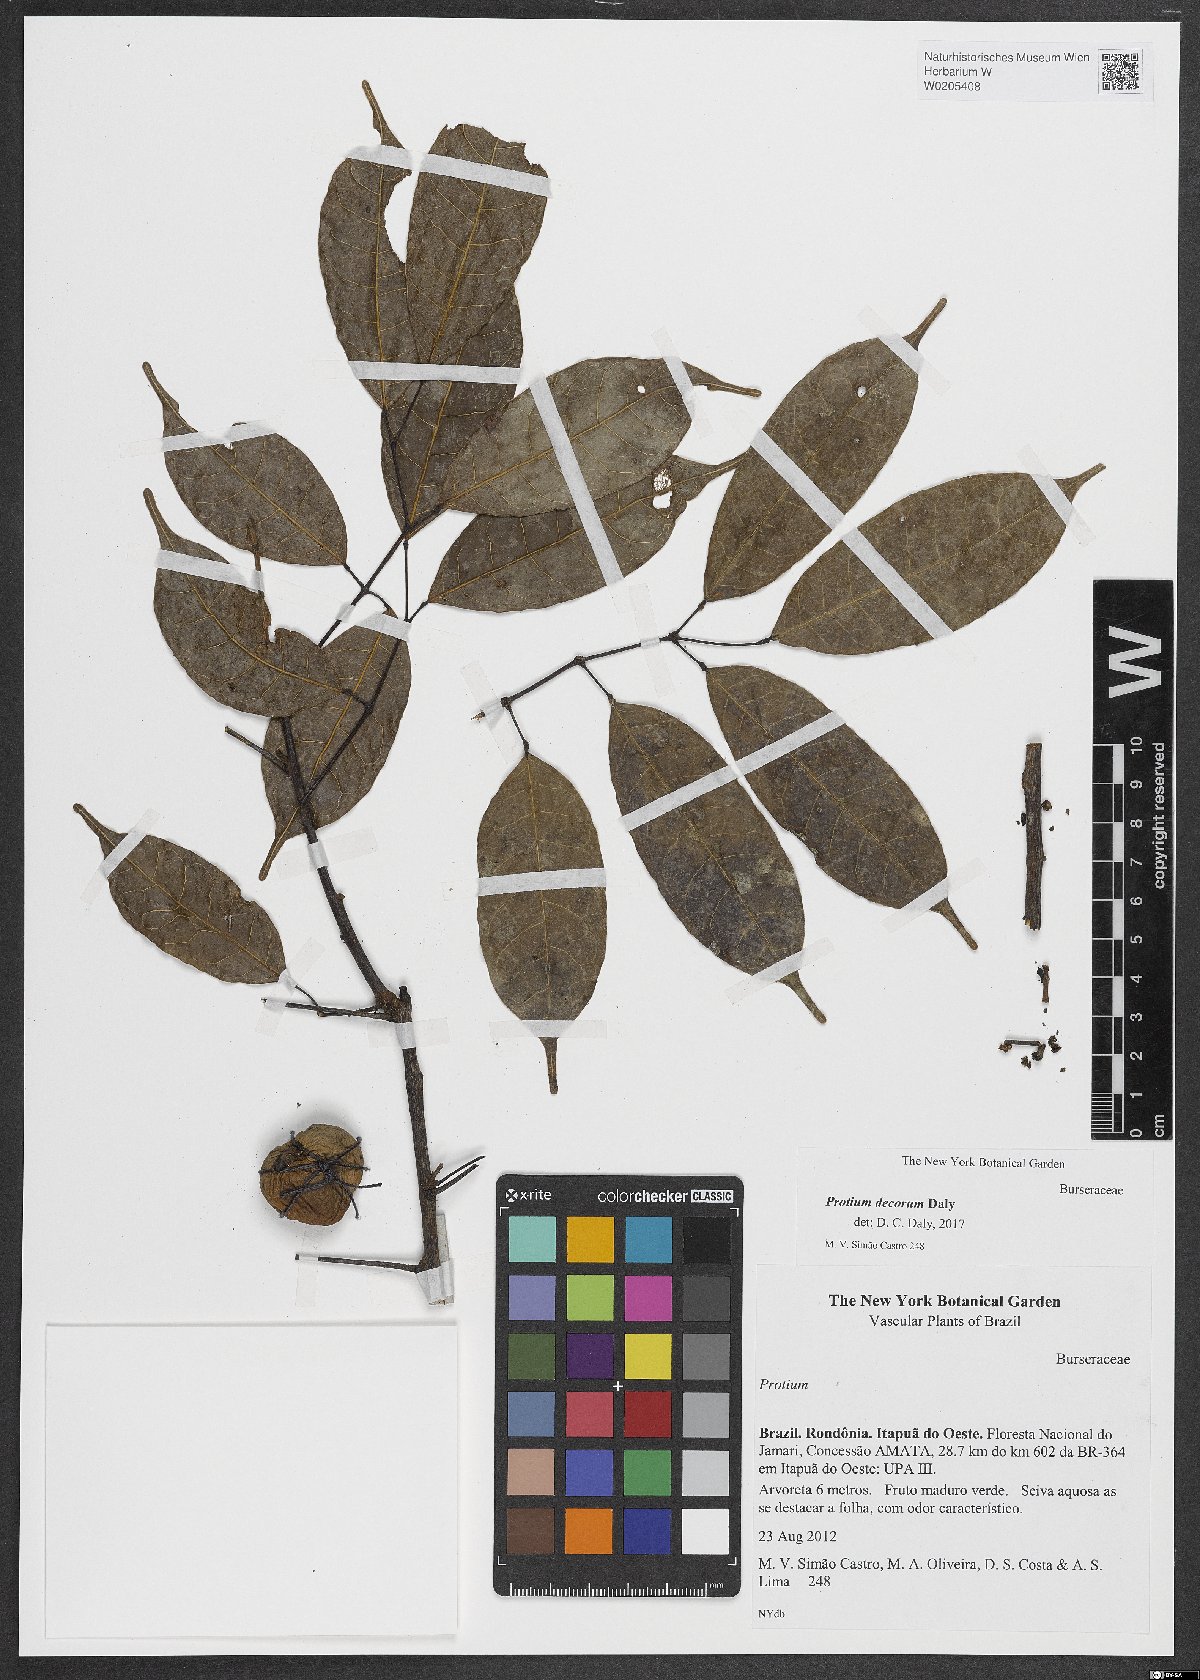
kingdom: Plantae
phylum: Tracheophyta
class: Magnoliopsida
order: Sapindales
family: Burseraceae
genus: Protium
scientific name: Protium decorum
